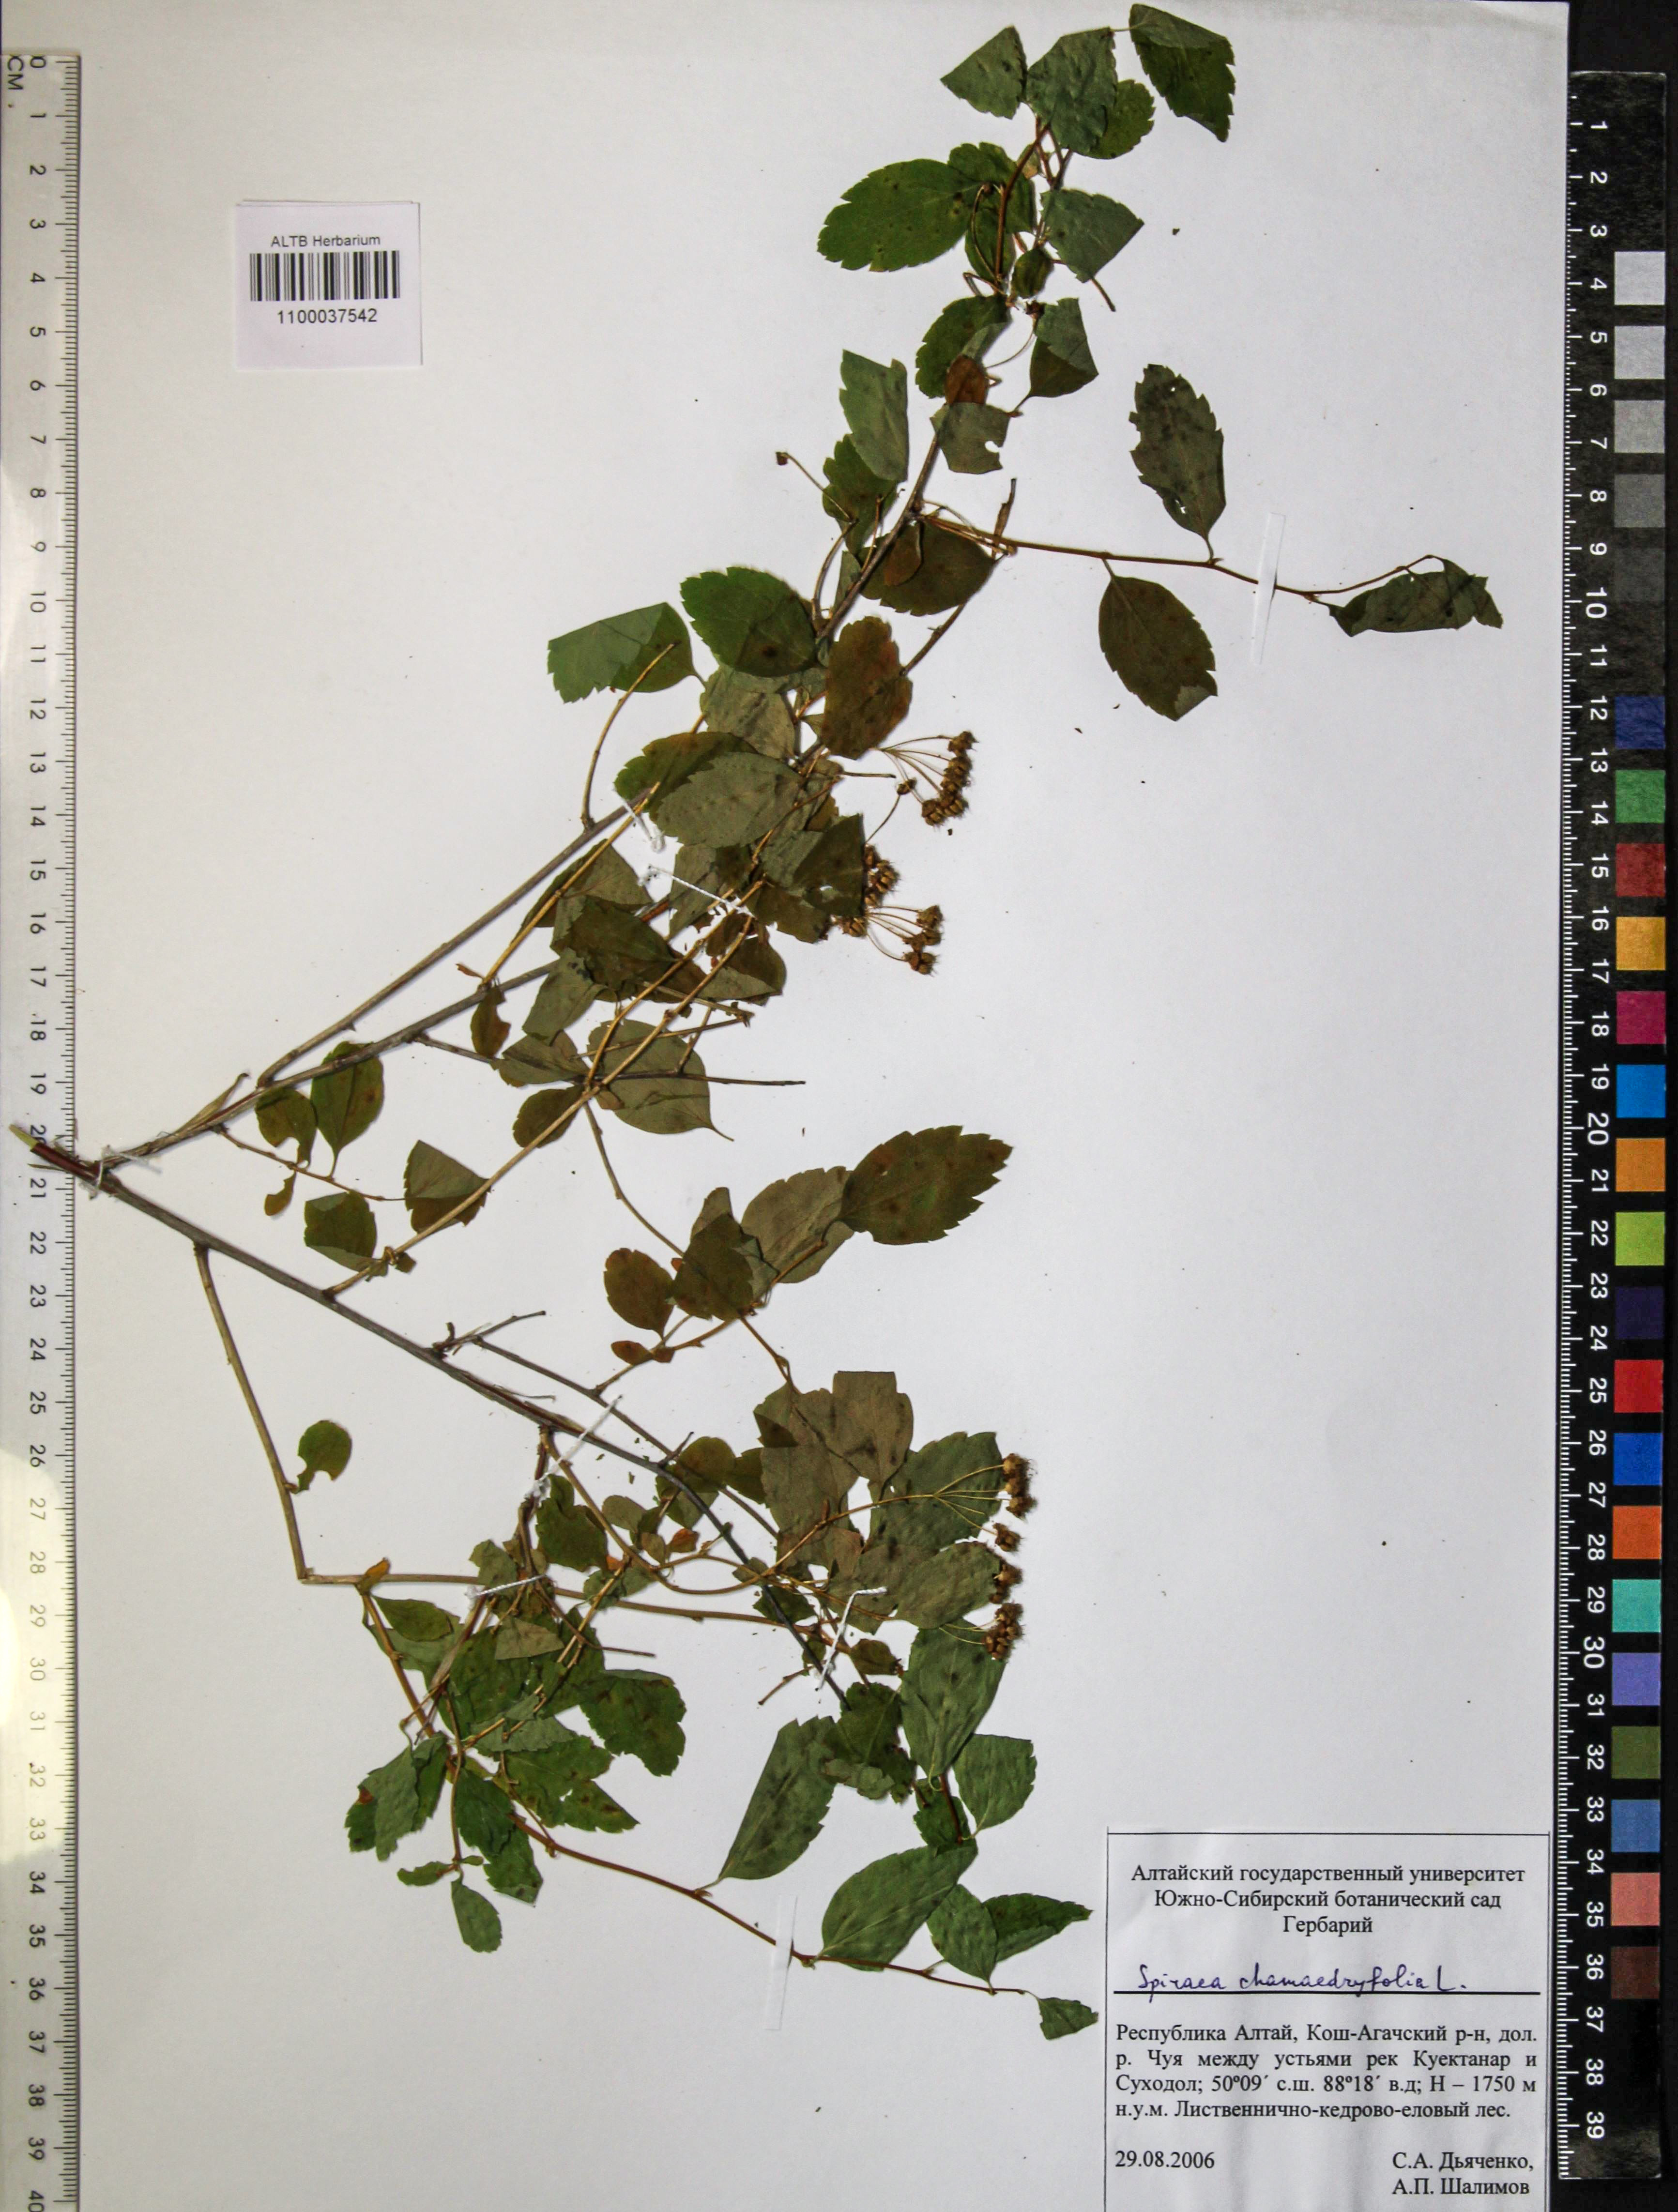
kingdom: Plantae
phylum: Tracheophyta
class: Magnoliopsida
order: Rosales
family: Rosaceae
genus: Spiraea
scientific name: Spiraea chamaedryfolia
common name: Elm-leaved spiraea
